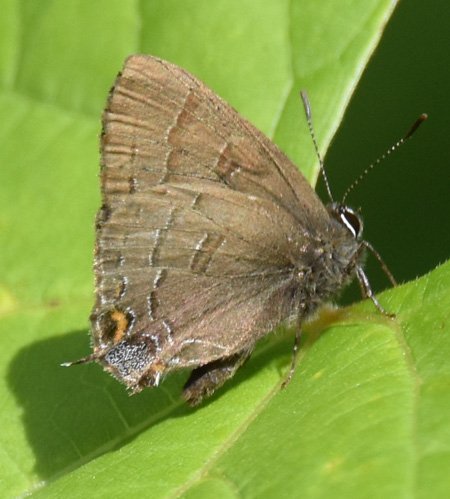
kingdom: Animalia
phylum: Arthropoda
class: Insecta
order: Lepidoptera
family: Lycaenidae
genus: Satyrium
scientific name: Satyrium calanus
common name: Banded Hairstreak
